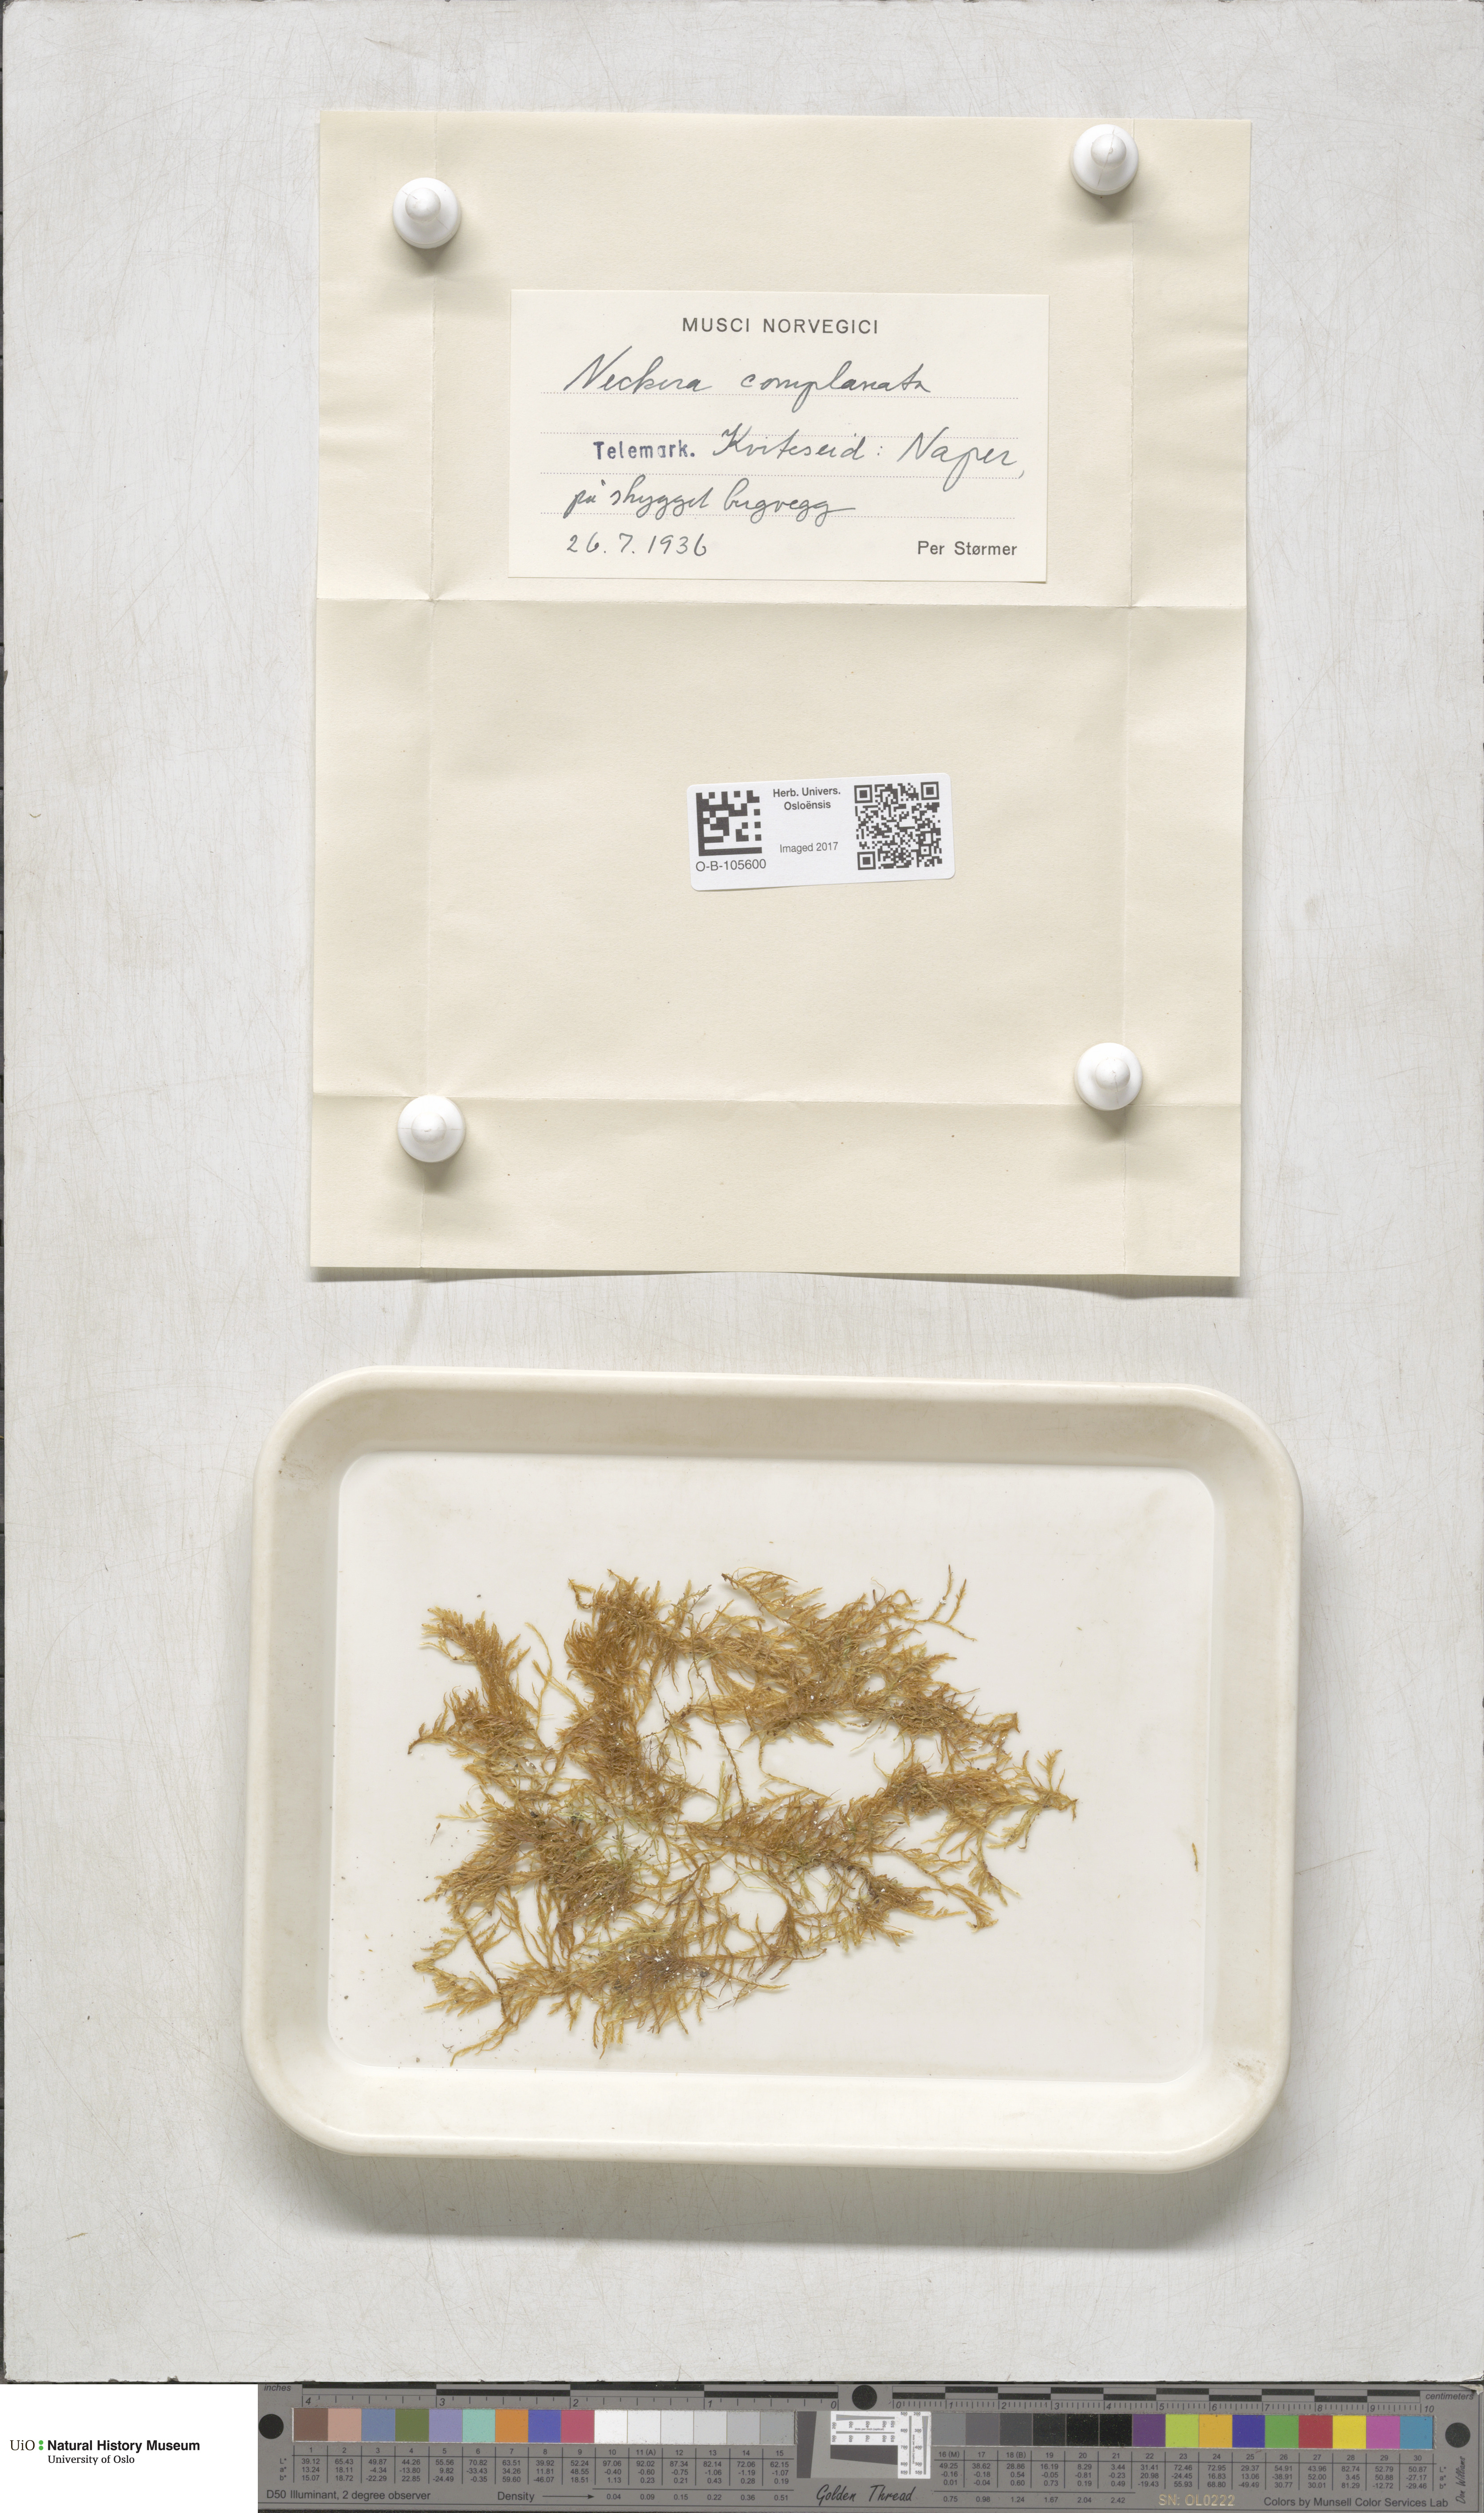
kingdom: Plantae
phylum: Bryophyta
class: Bryopsida
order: Hypnales
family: Neckeraceae
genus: Alleniella
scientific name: Alleniella complanata
